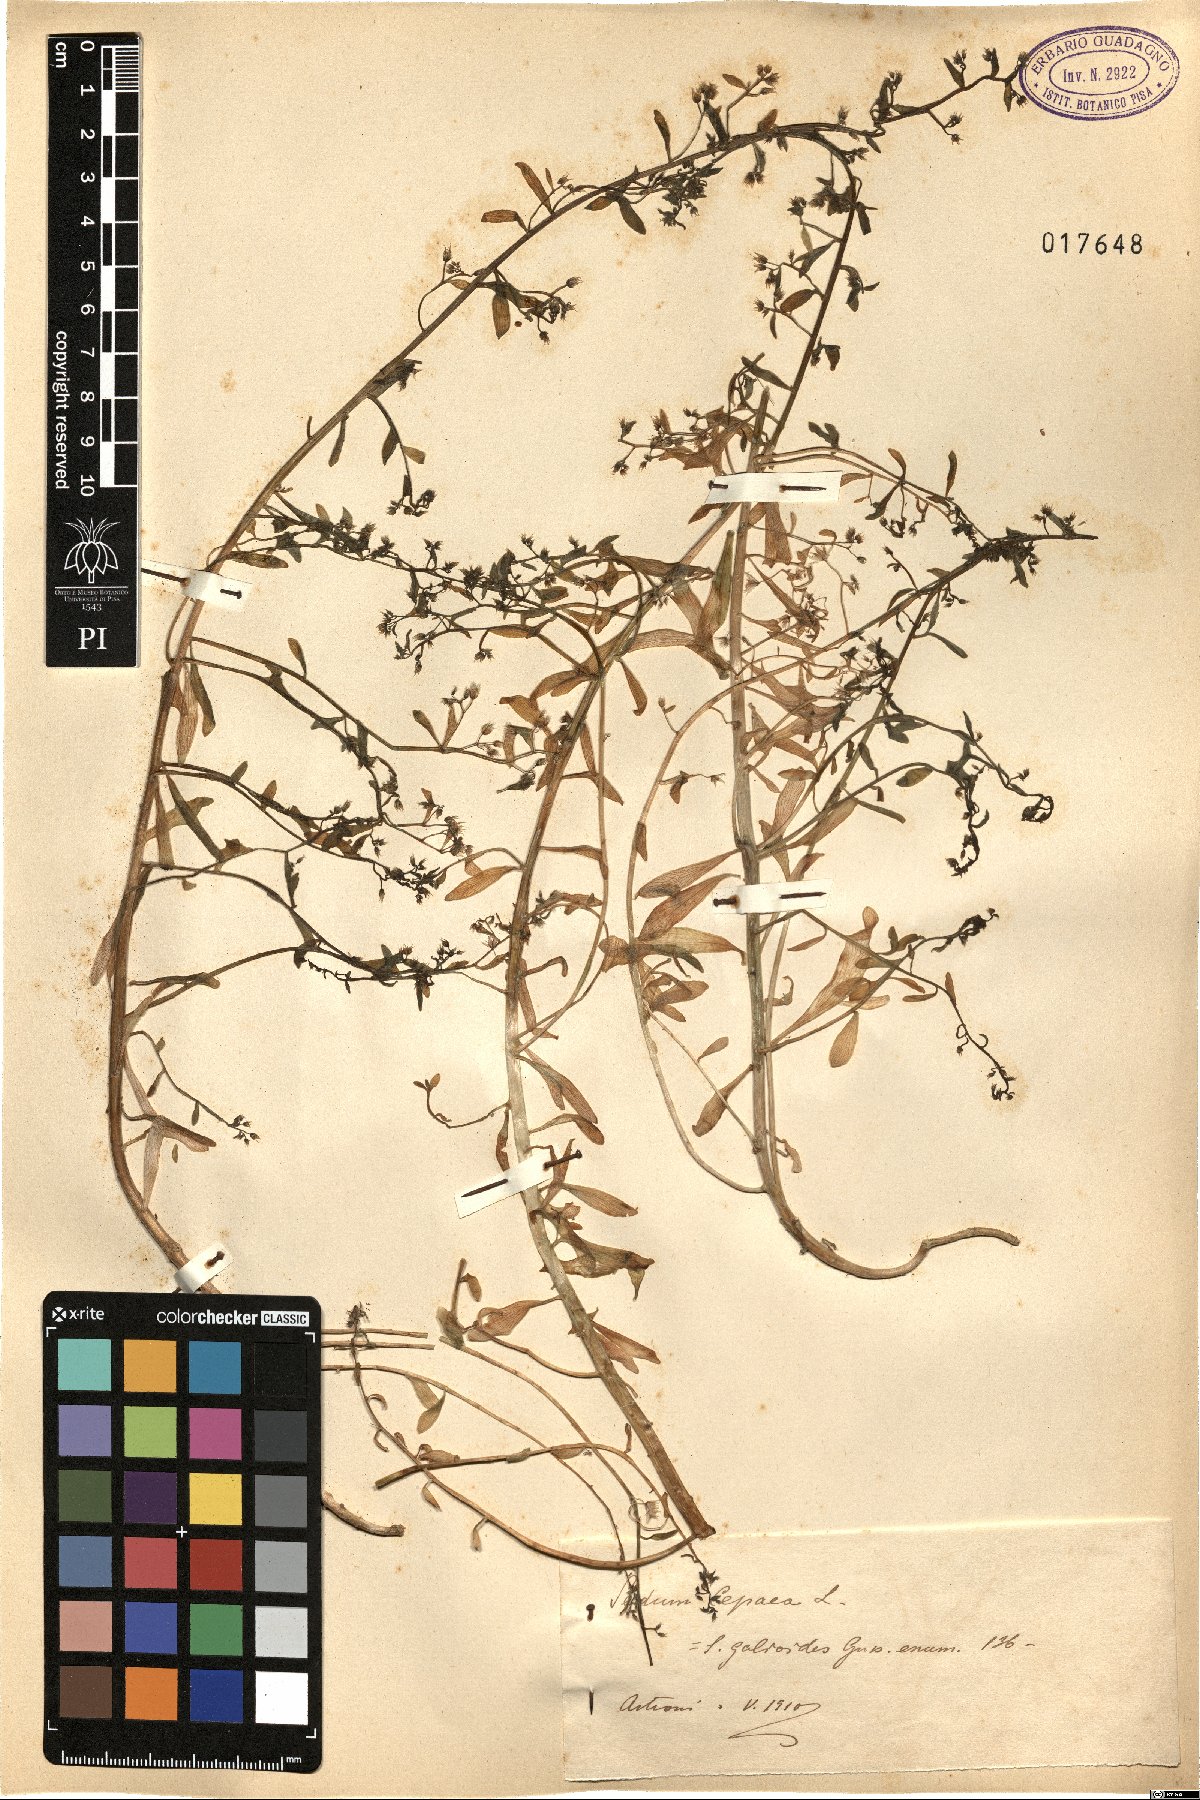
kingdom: Plantae
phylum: Tracheophyta
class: Magnoliopsida
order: Saxifragales
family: Crassulaceae
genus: Sedum
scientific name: Sedum cepaea
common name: Pink stonecrop
